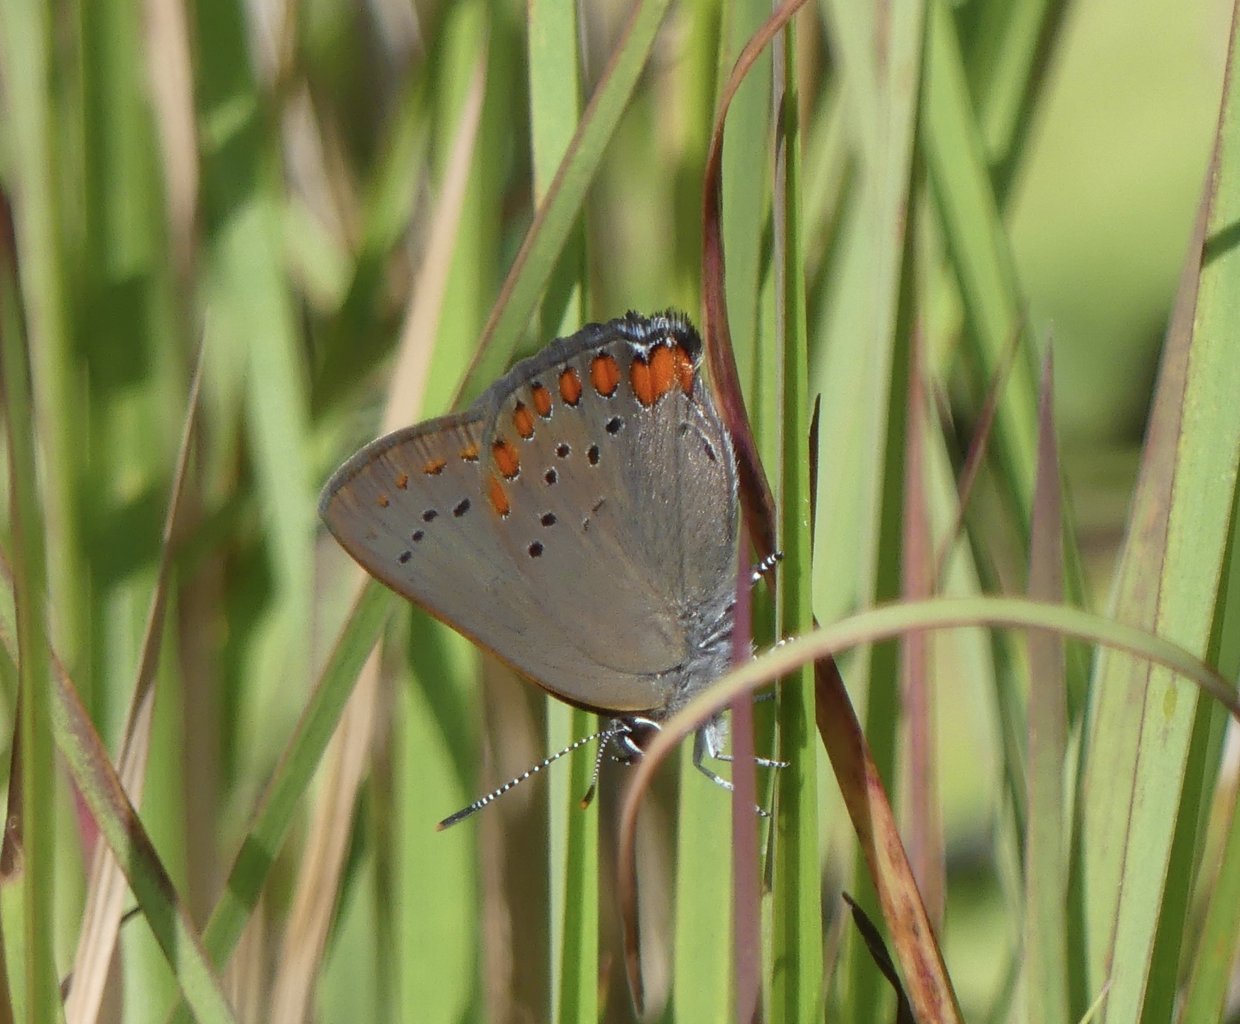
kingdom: Animalia
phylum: Arthropoda
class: Insecta
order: Lepidoptera
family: Lycaenidae
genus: Harkenclenus
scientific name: Harkenclenus titus
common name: Coral Hairstreak
